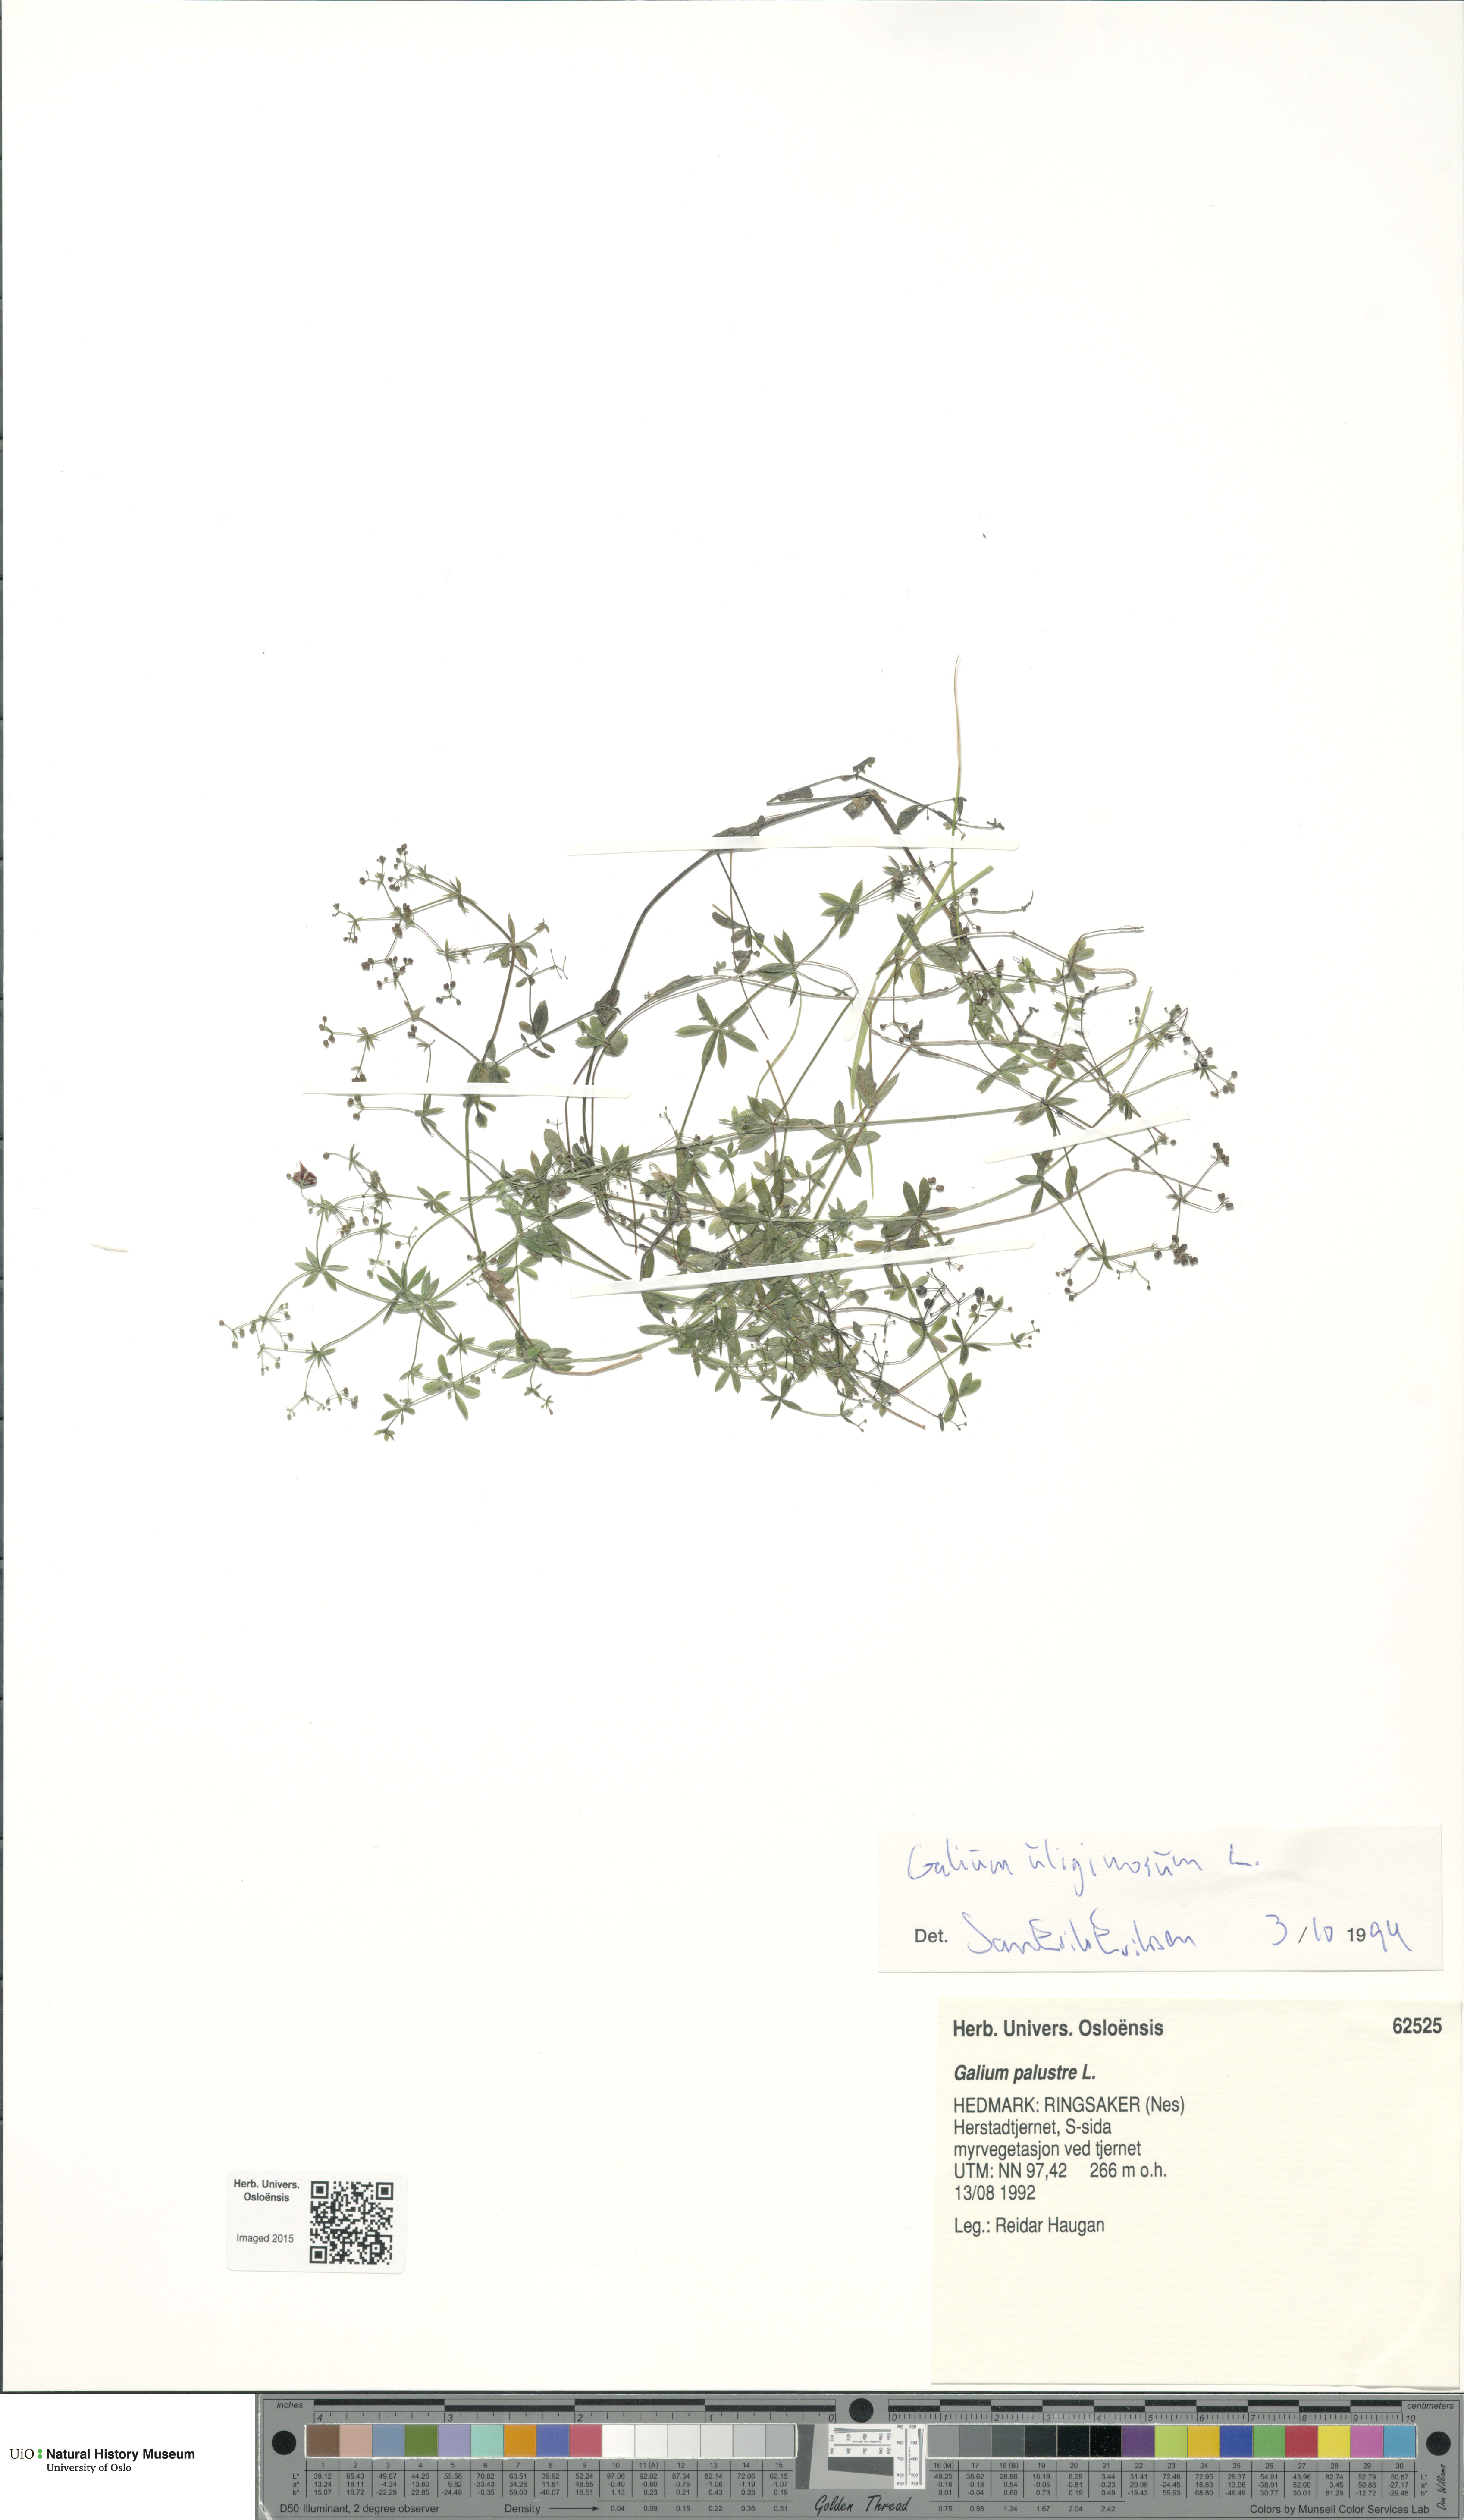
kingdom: Plantae
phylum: Tracheophyta
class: Magnoliopsida
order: Gentianales
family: Rubiaceae
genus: Galium
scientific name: Galium uliginosum
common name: Fen bedstraw
